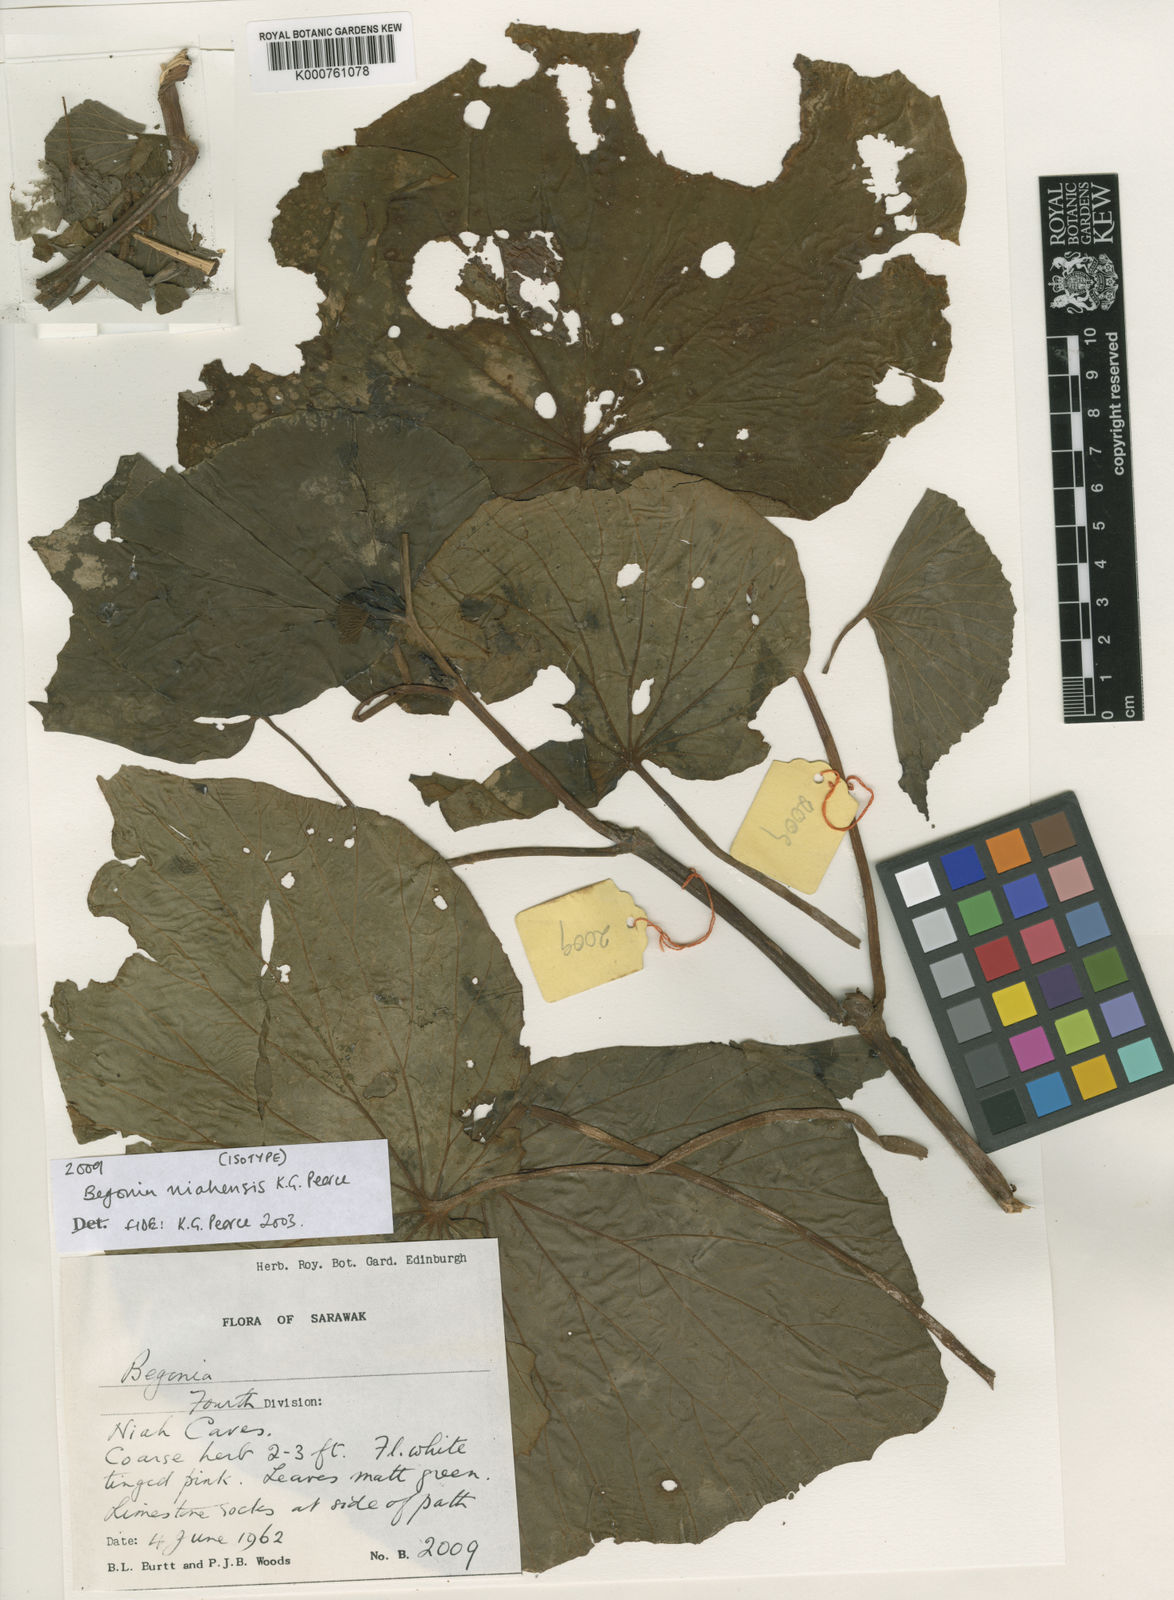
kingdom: Plantae
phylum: Tracheophyta
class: Magnoliopsida
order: Cucurbitales
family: Begoniaceae
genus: Begonia
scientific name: Begonia niahensis
